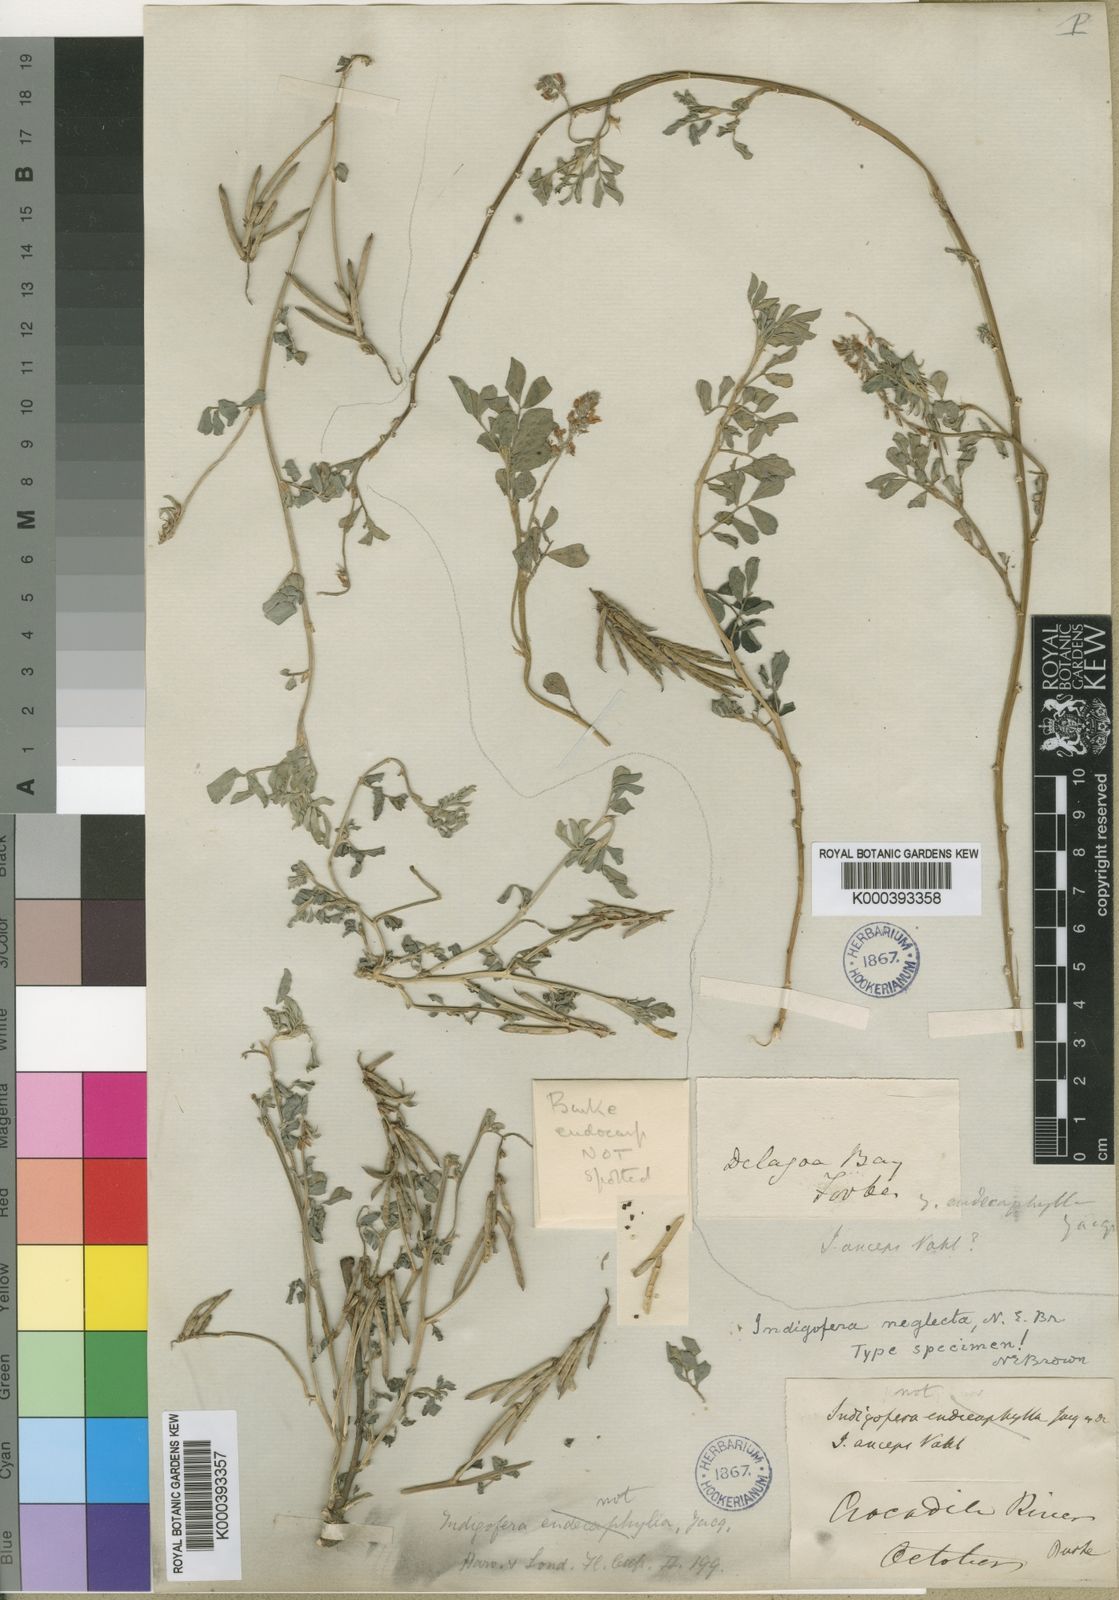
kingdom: Plantae
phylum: Tracheophyta
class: Magnoliopsida
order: Fabales
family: Fabaceae
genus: Indigofera
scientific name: Indigofera spicata
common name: Creeping indigo
